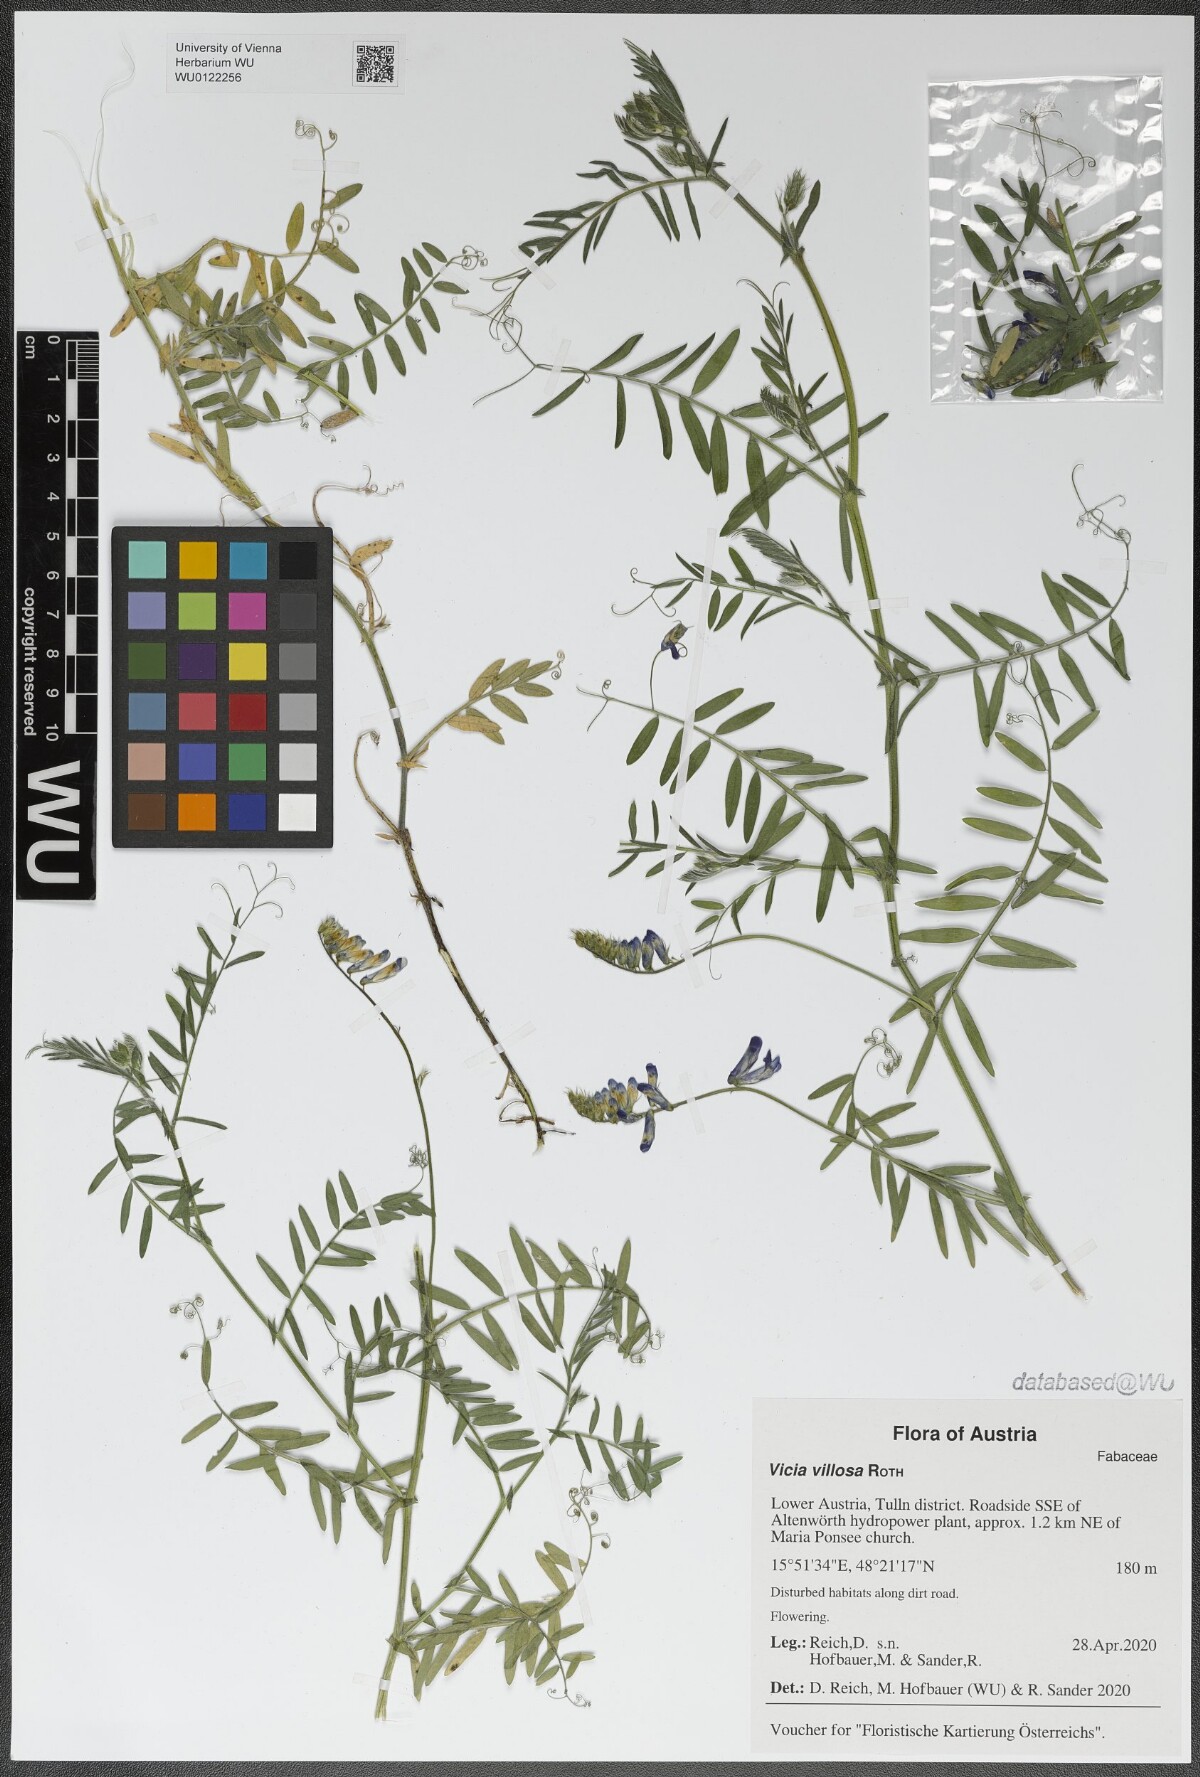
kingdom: Plantae
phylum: Tracheophyta
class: Magnoliopsida
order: Fabales
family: Fabaceae
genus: Vicia
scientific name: Vicia villosa
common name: Fodder vetch
